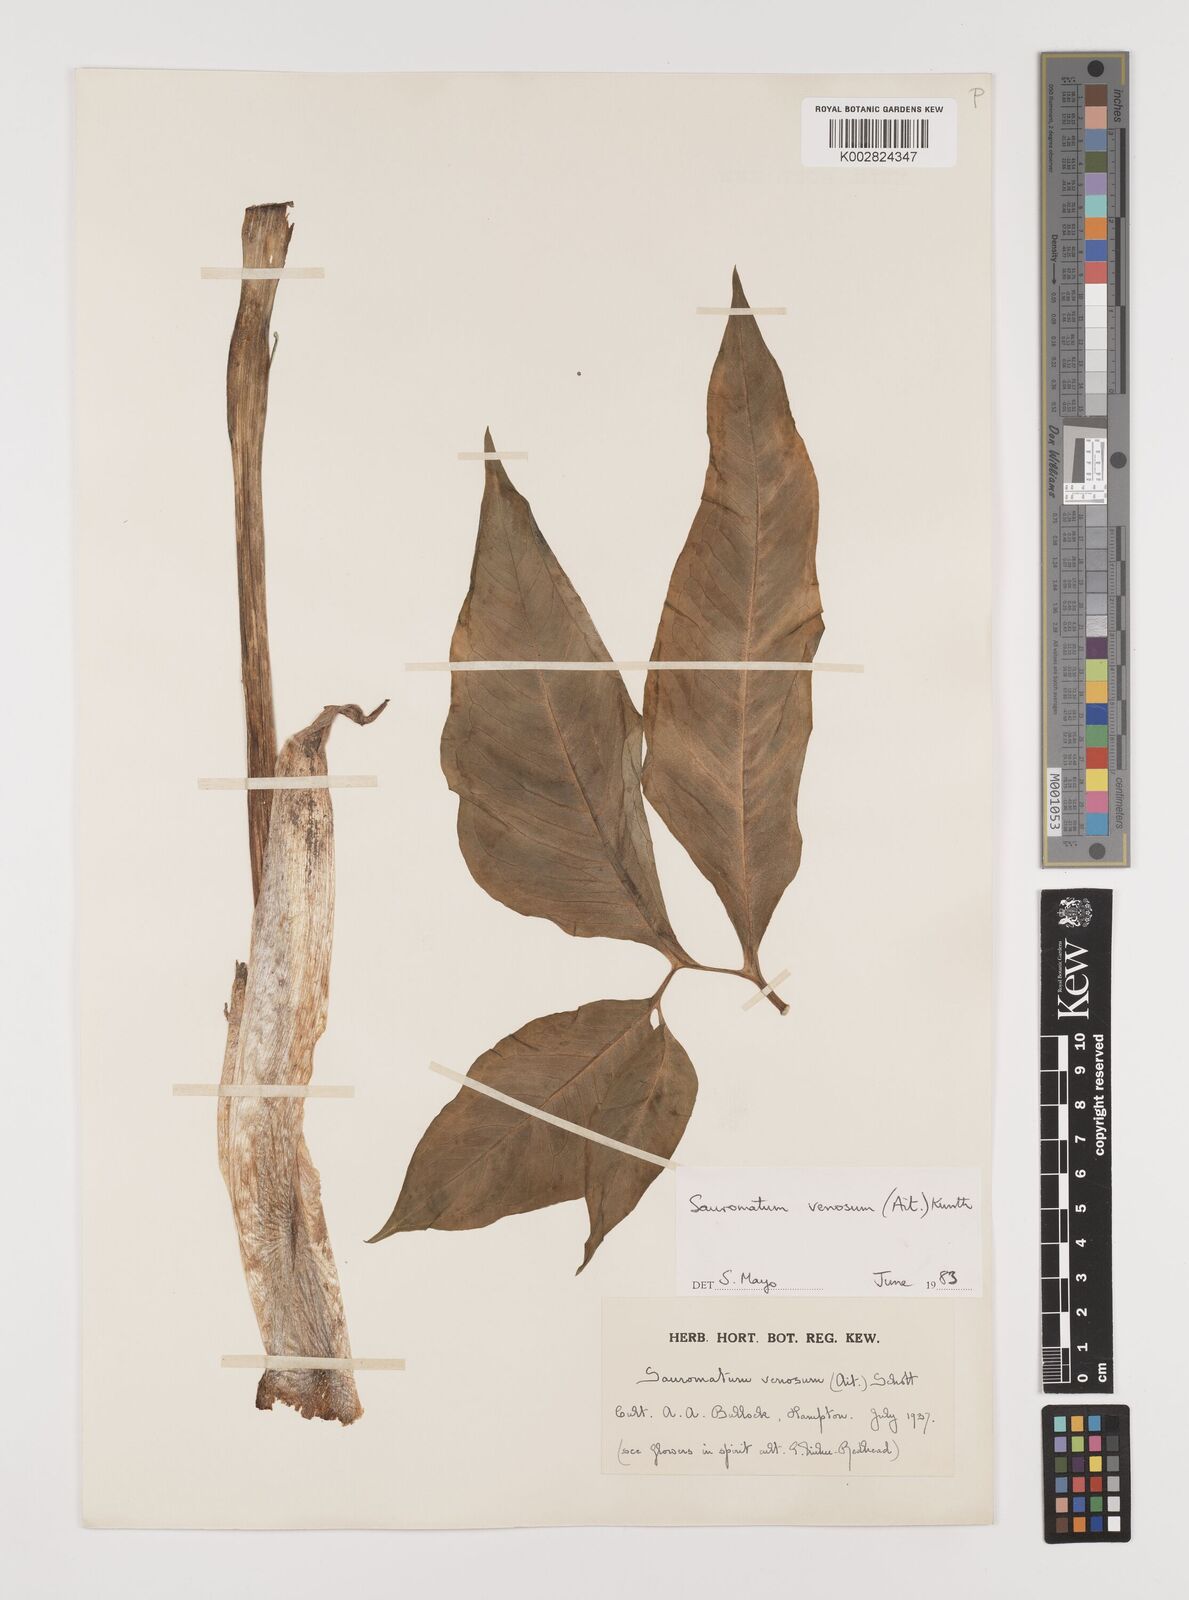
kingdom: Plantae
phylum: Tracheophyta
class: Liliopsida
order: Alismatales
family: Araceae
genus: Sauromatum
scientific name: Sauromatum venosum
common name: Voodoo lily
